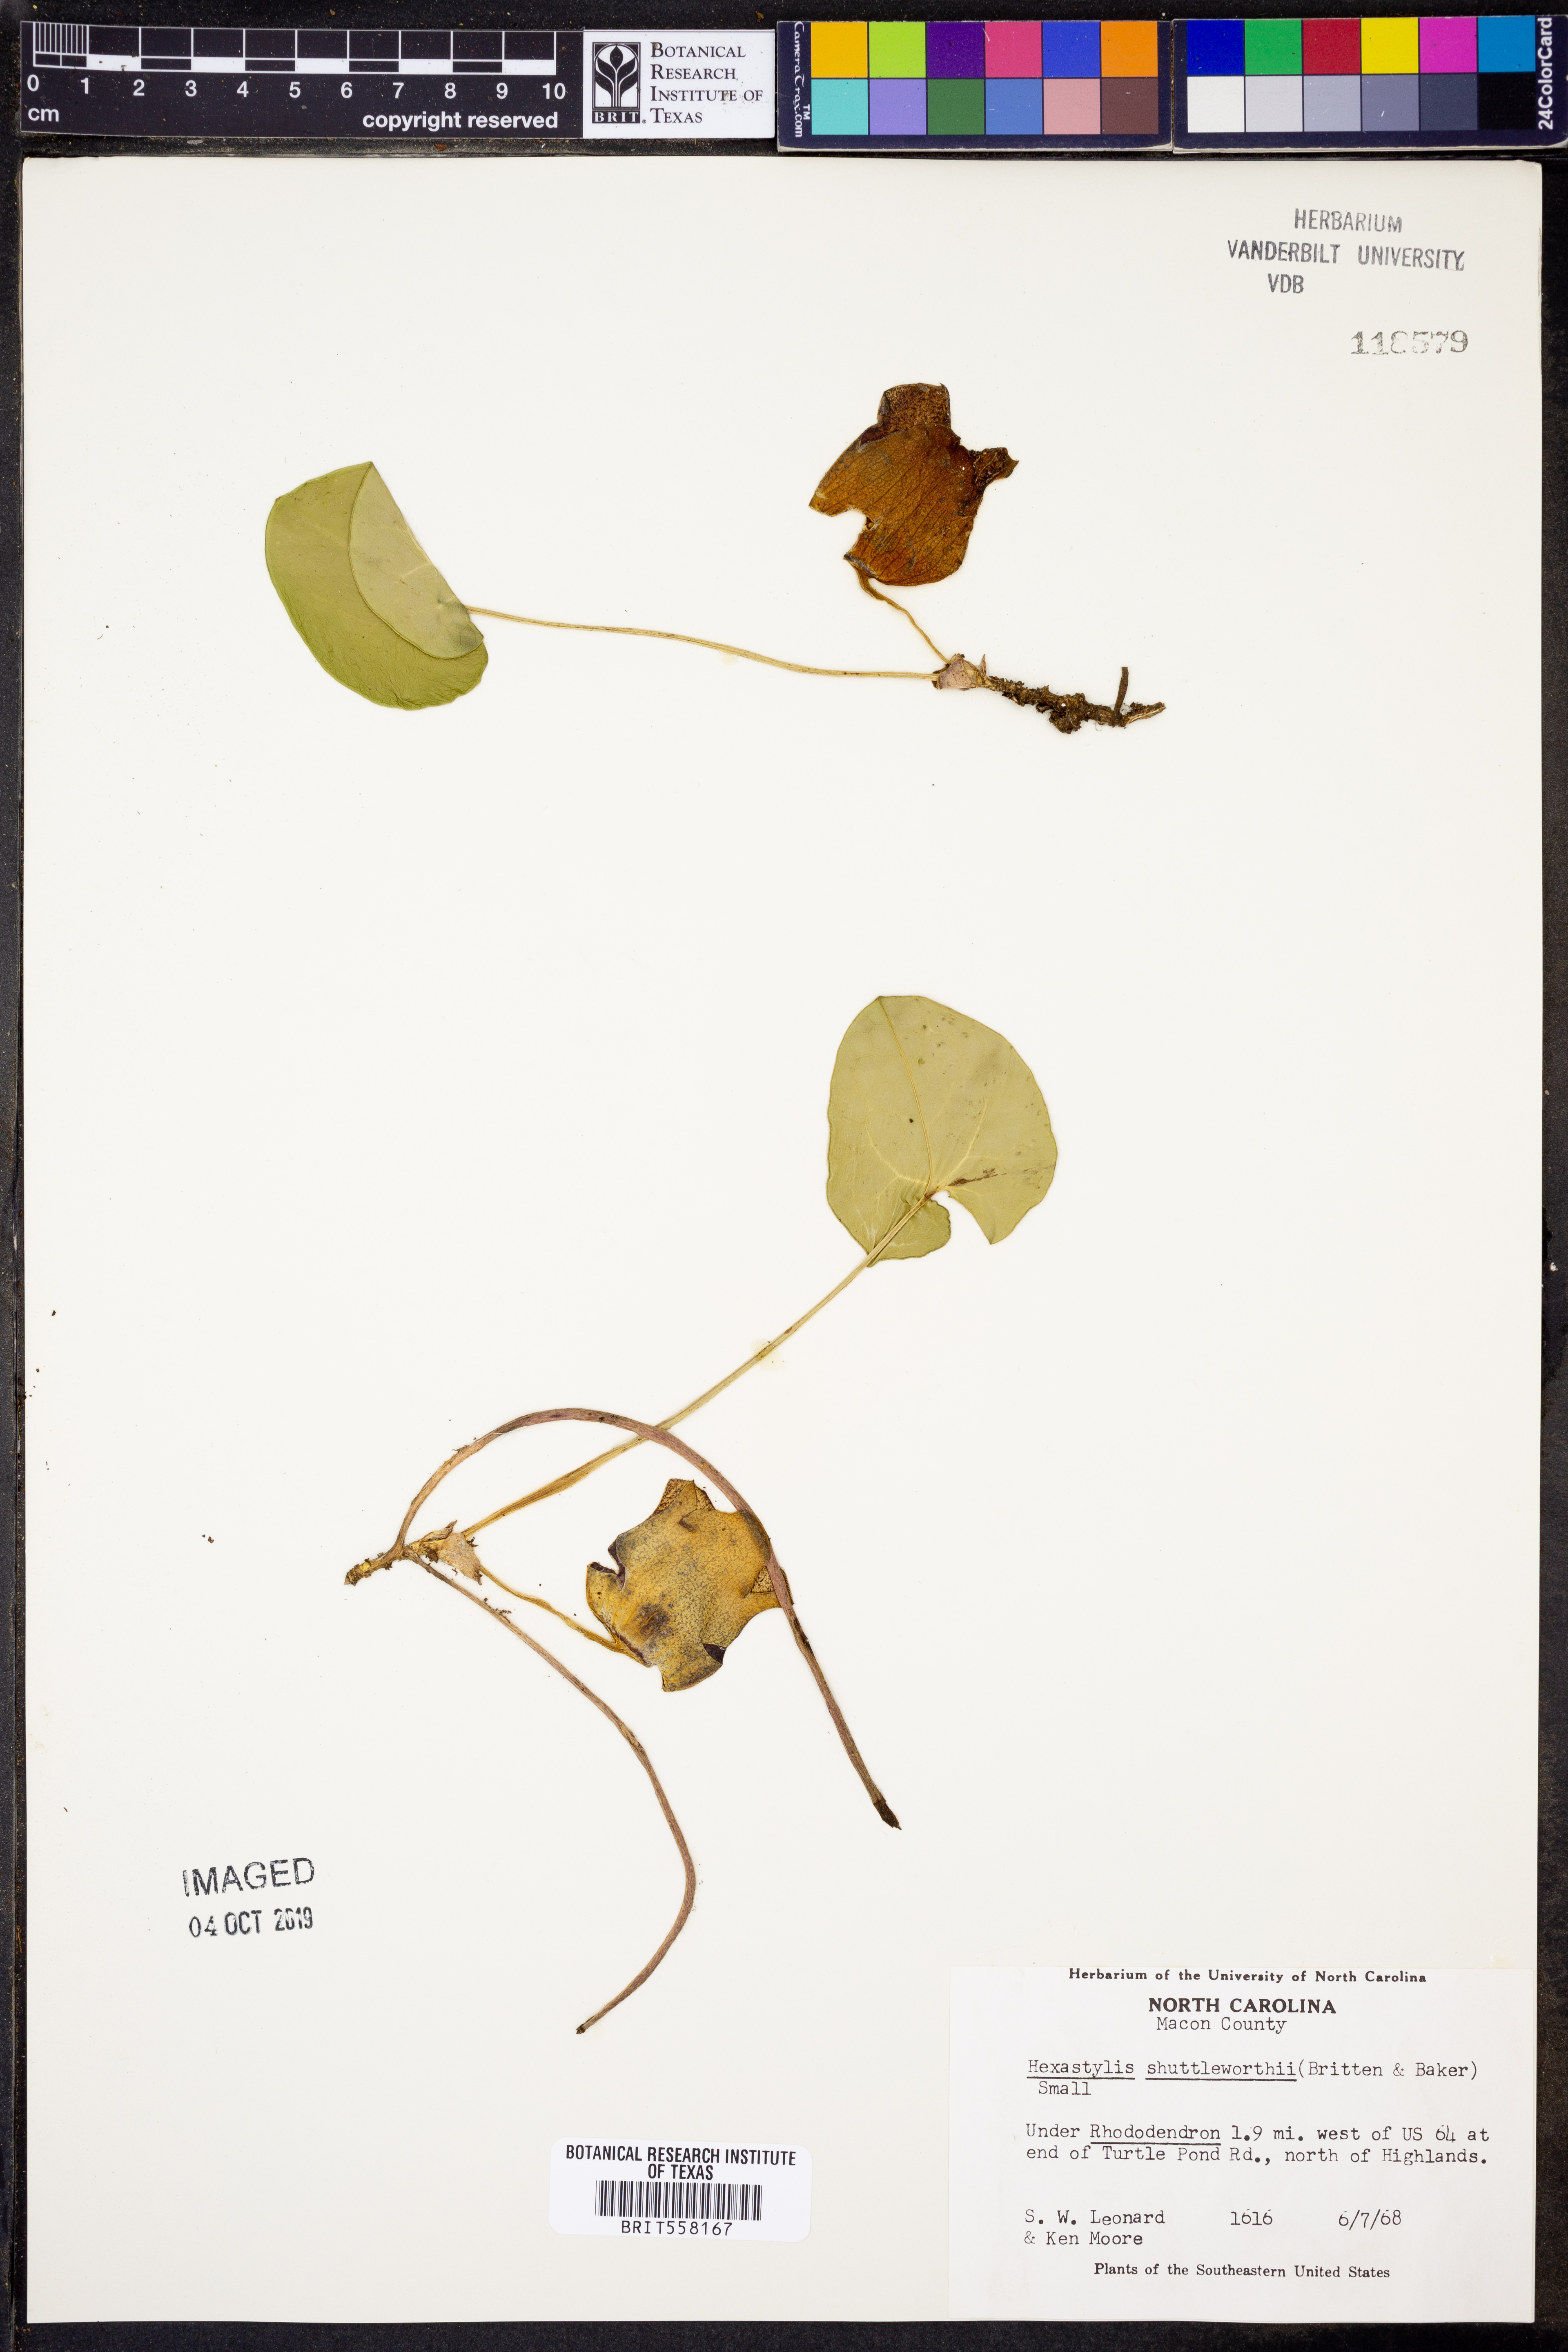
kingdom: Plantae
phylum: Tracheophyta
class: Magnoliopsida
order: Piperales
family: Aristolochiaceae
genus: Hexastylis
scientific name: Hexastylis shuttleworthii
